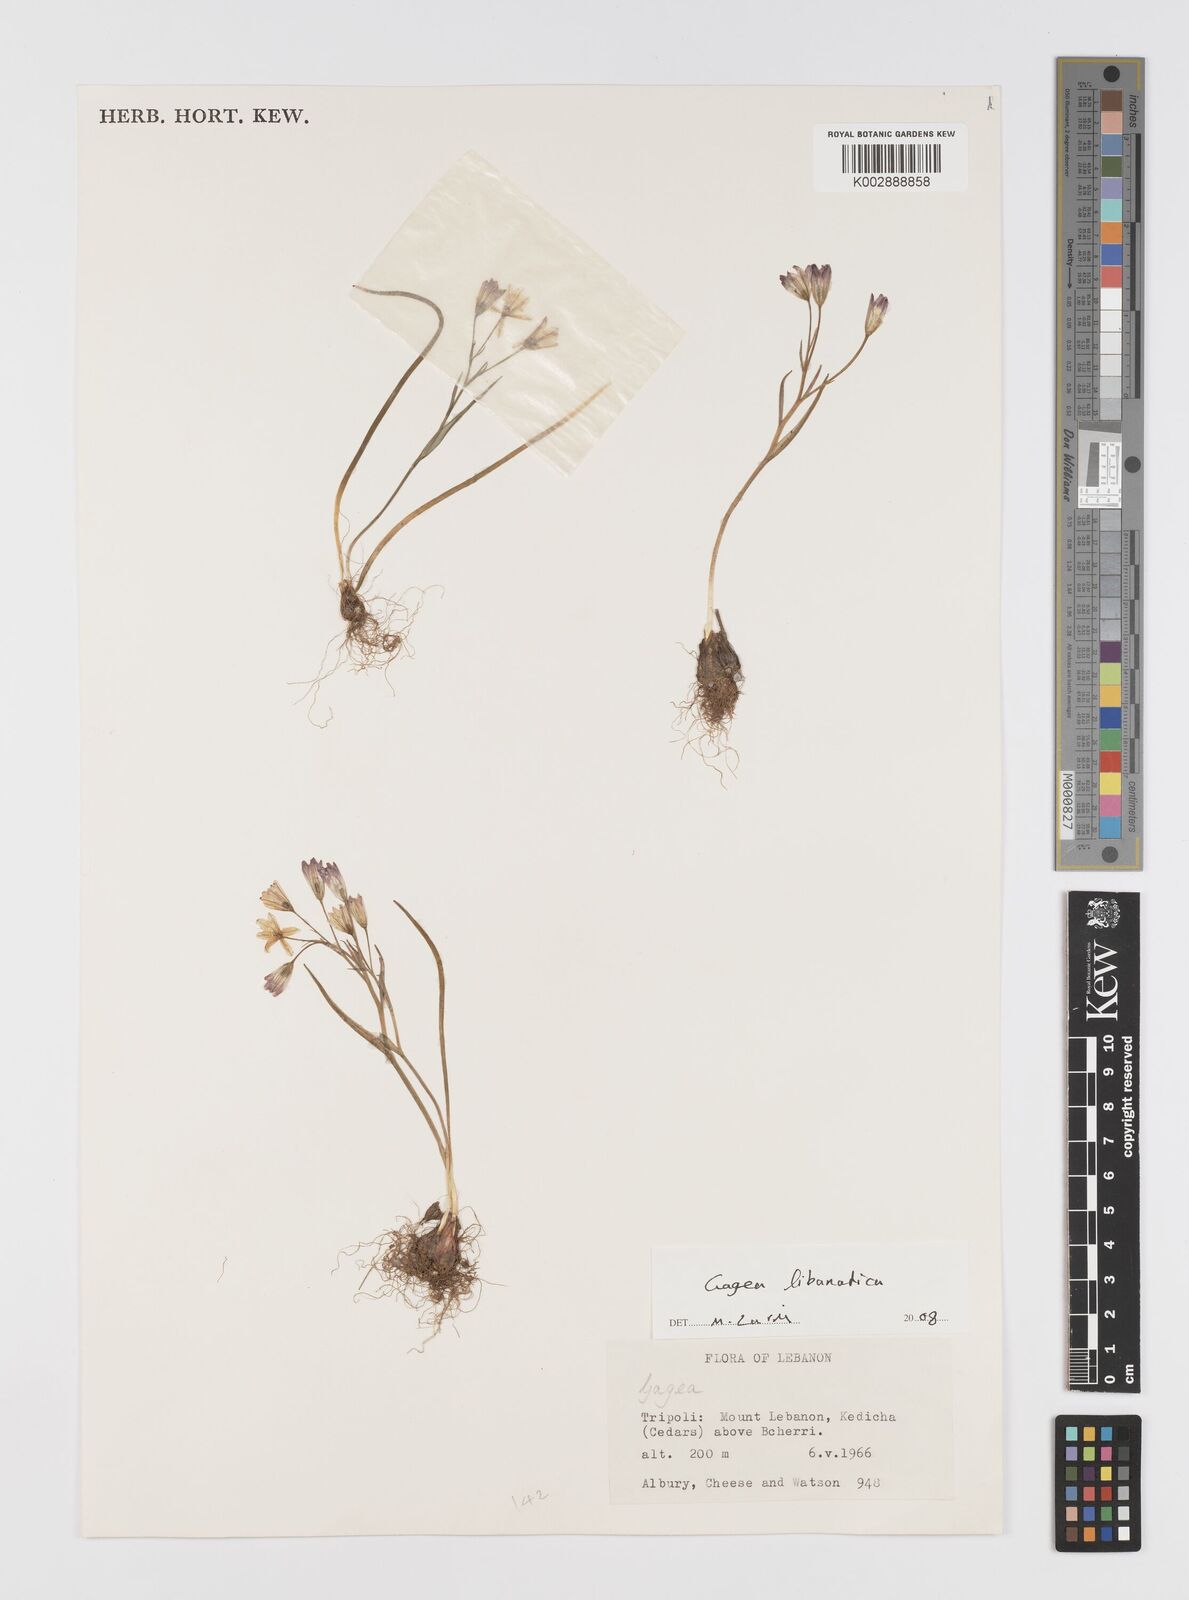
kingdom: Plantae
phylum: Tracheophyta
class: Liliopsida
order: Liliales
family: Liliaceae
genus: Gagea
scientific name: Gagea
